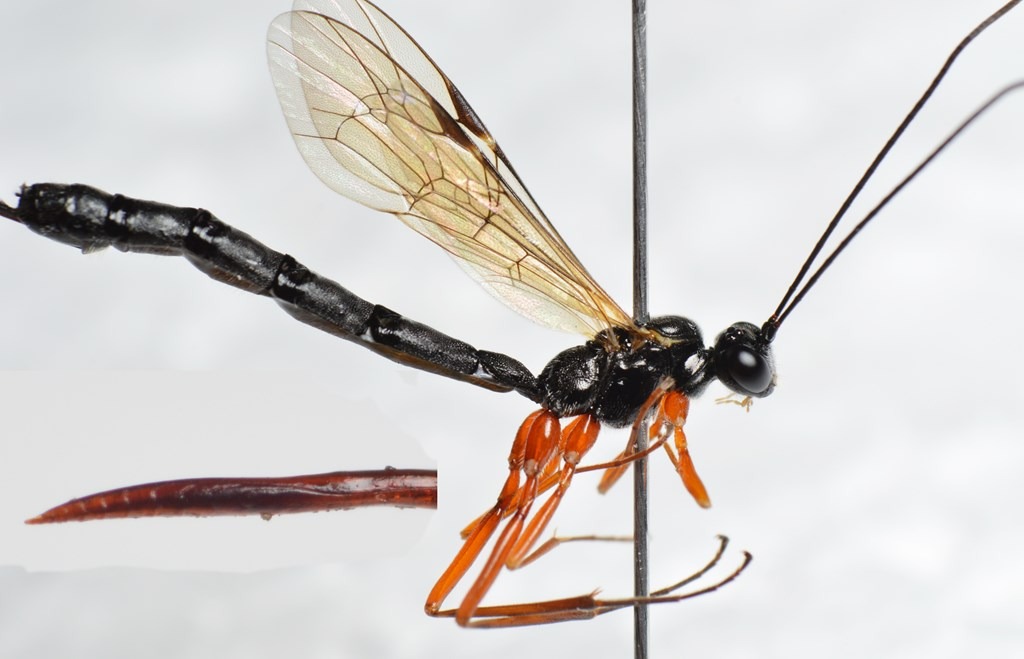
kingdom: Animalia
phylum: Arthropoda
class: Insecta
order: Hymenoptera
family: Ichneumonidae
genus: Ephialtes
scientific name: Ephialtes manifestator
